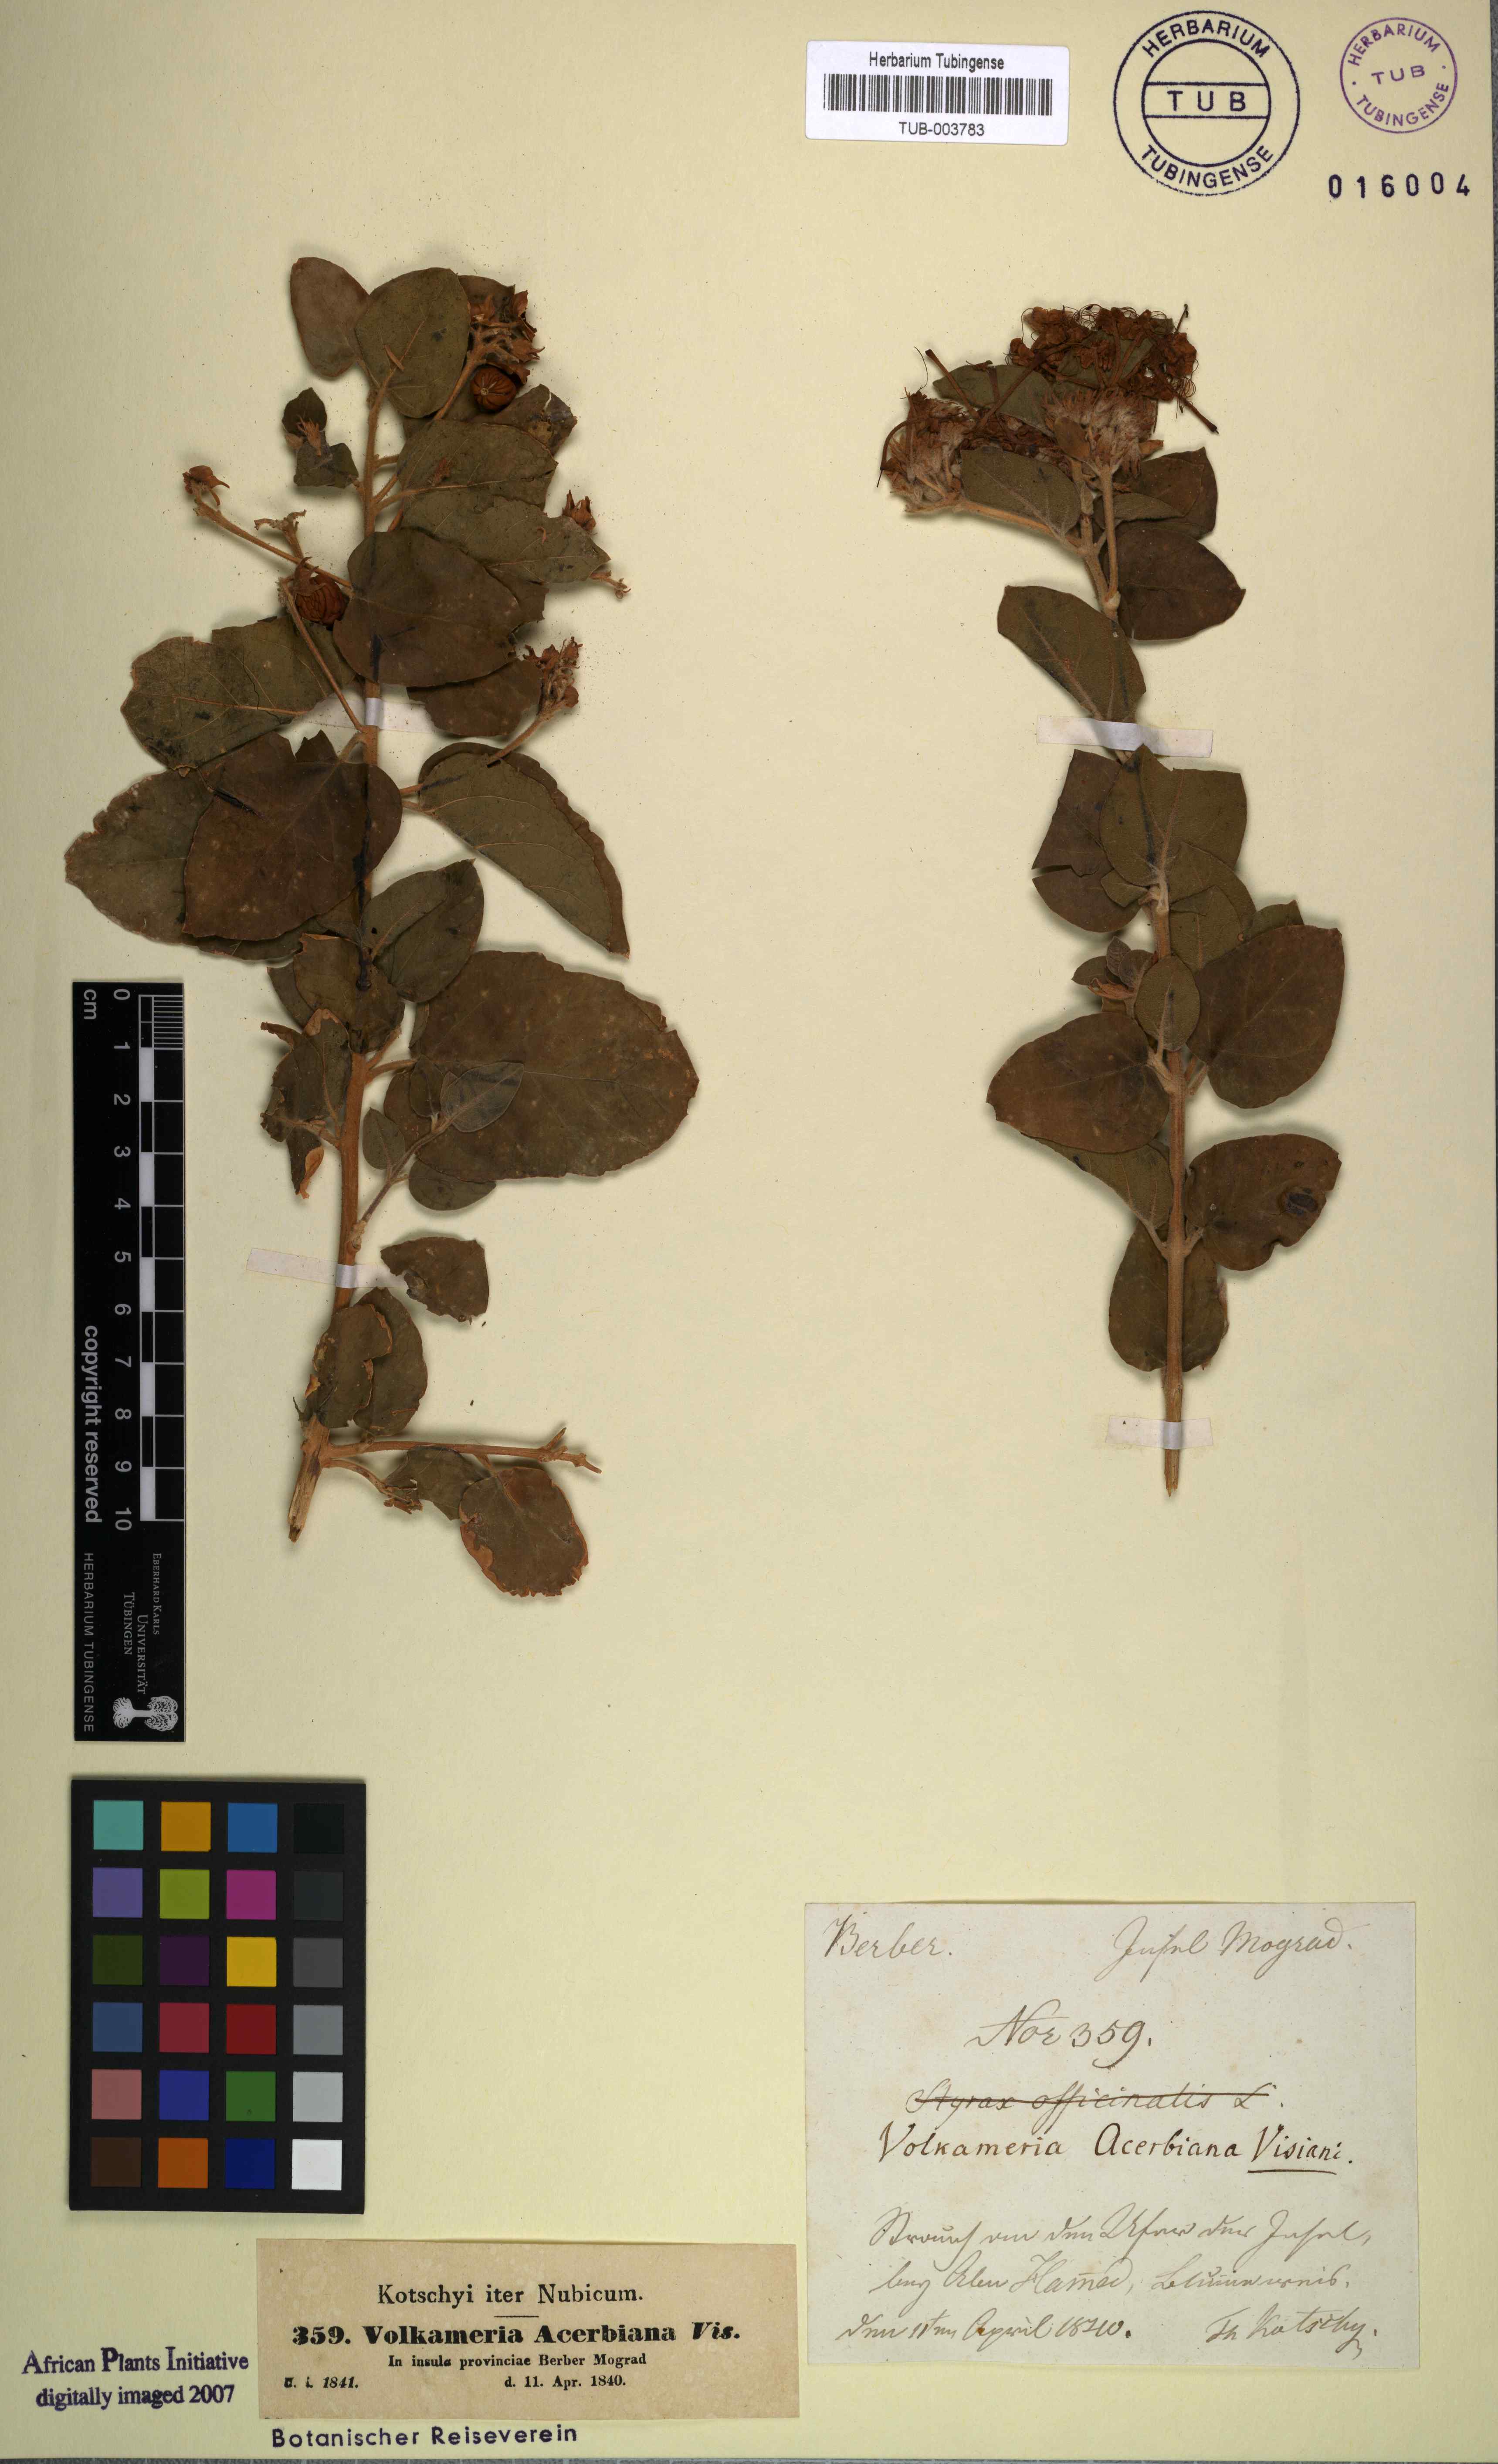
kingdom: Plantae
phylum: Tracheophyta
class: Magnoliopsida
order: Lamiales
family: Lamiaceae
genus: Volkameria
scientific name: Volkameria acerbiana
